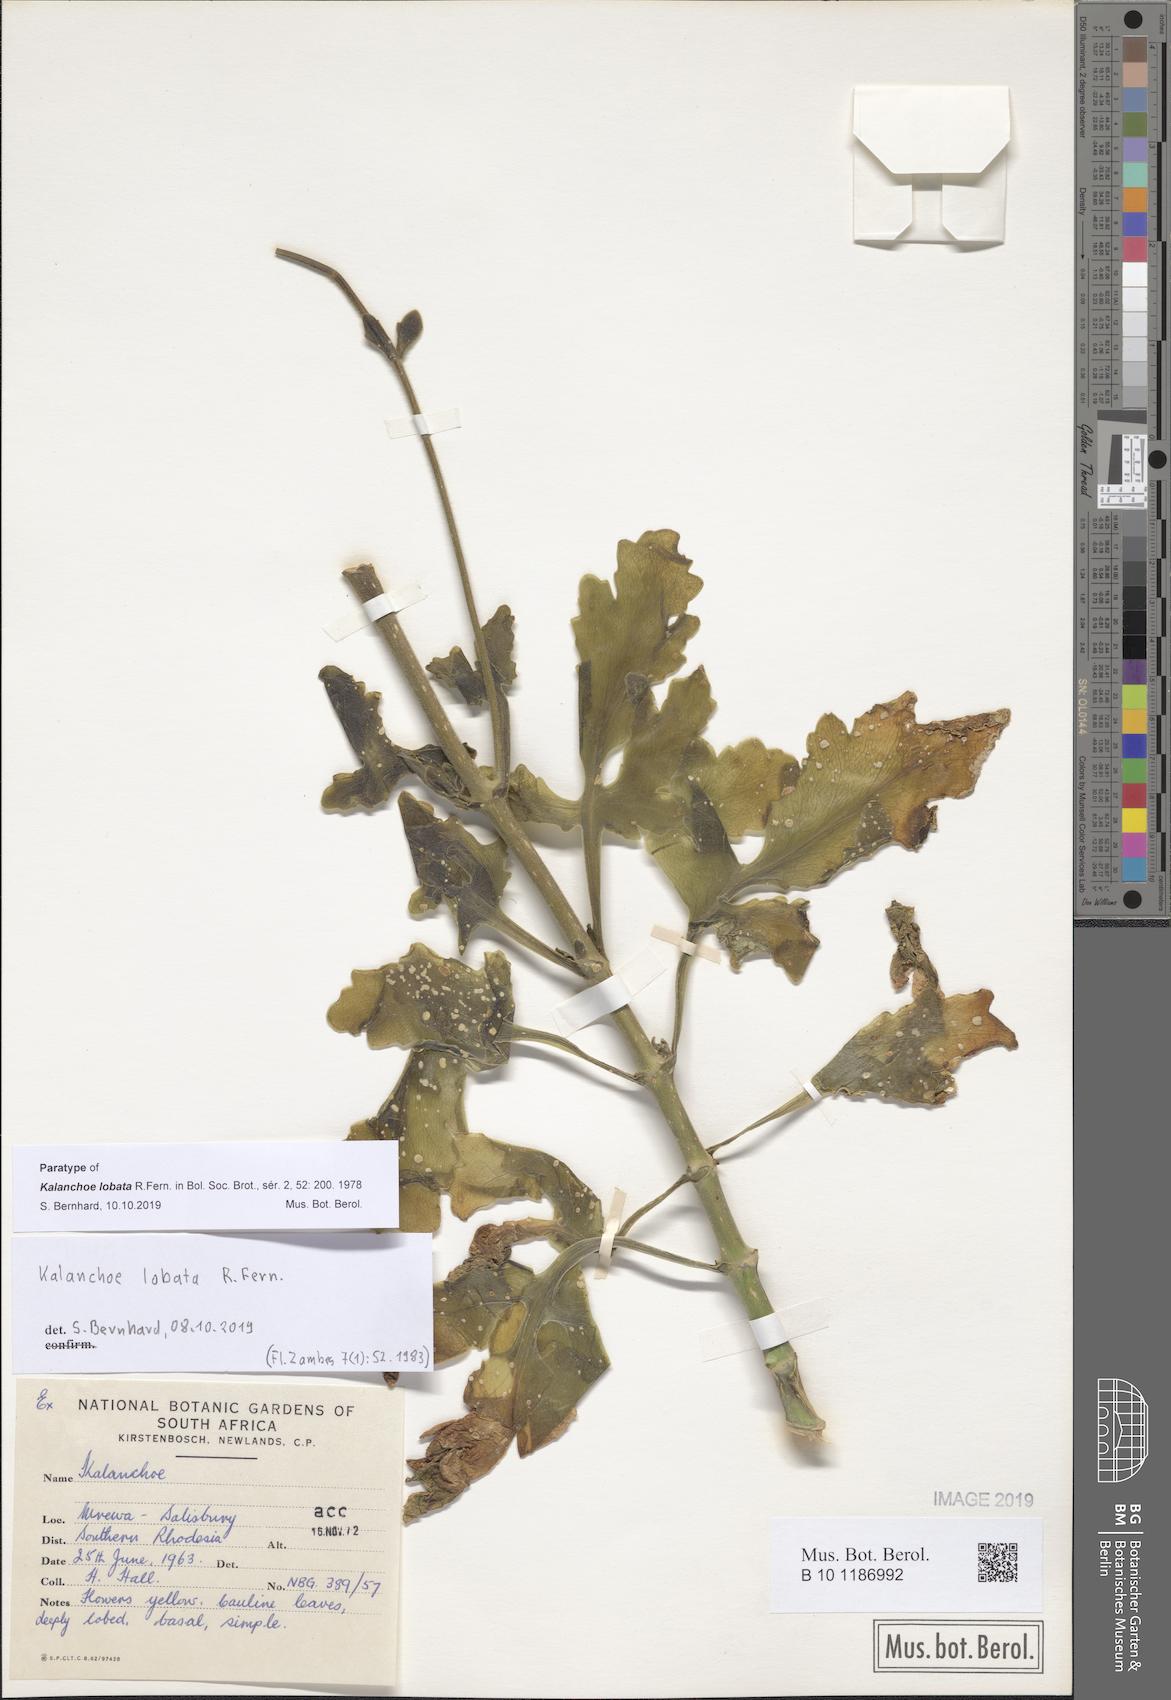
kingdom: Plantae
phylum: Tracheophyta
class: Magnoliopsida
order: Saxifragales
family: Crassulaceae
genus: Kalanchoe
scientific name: Kalanchoe lobata
